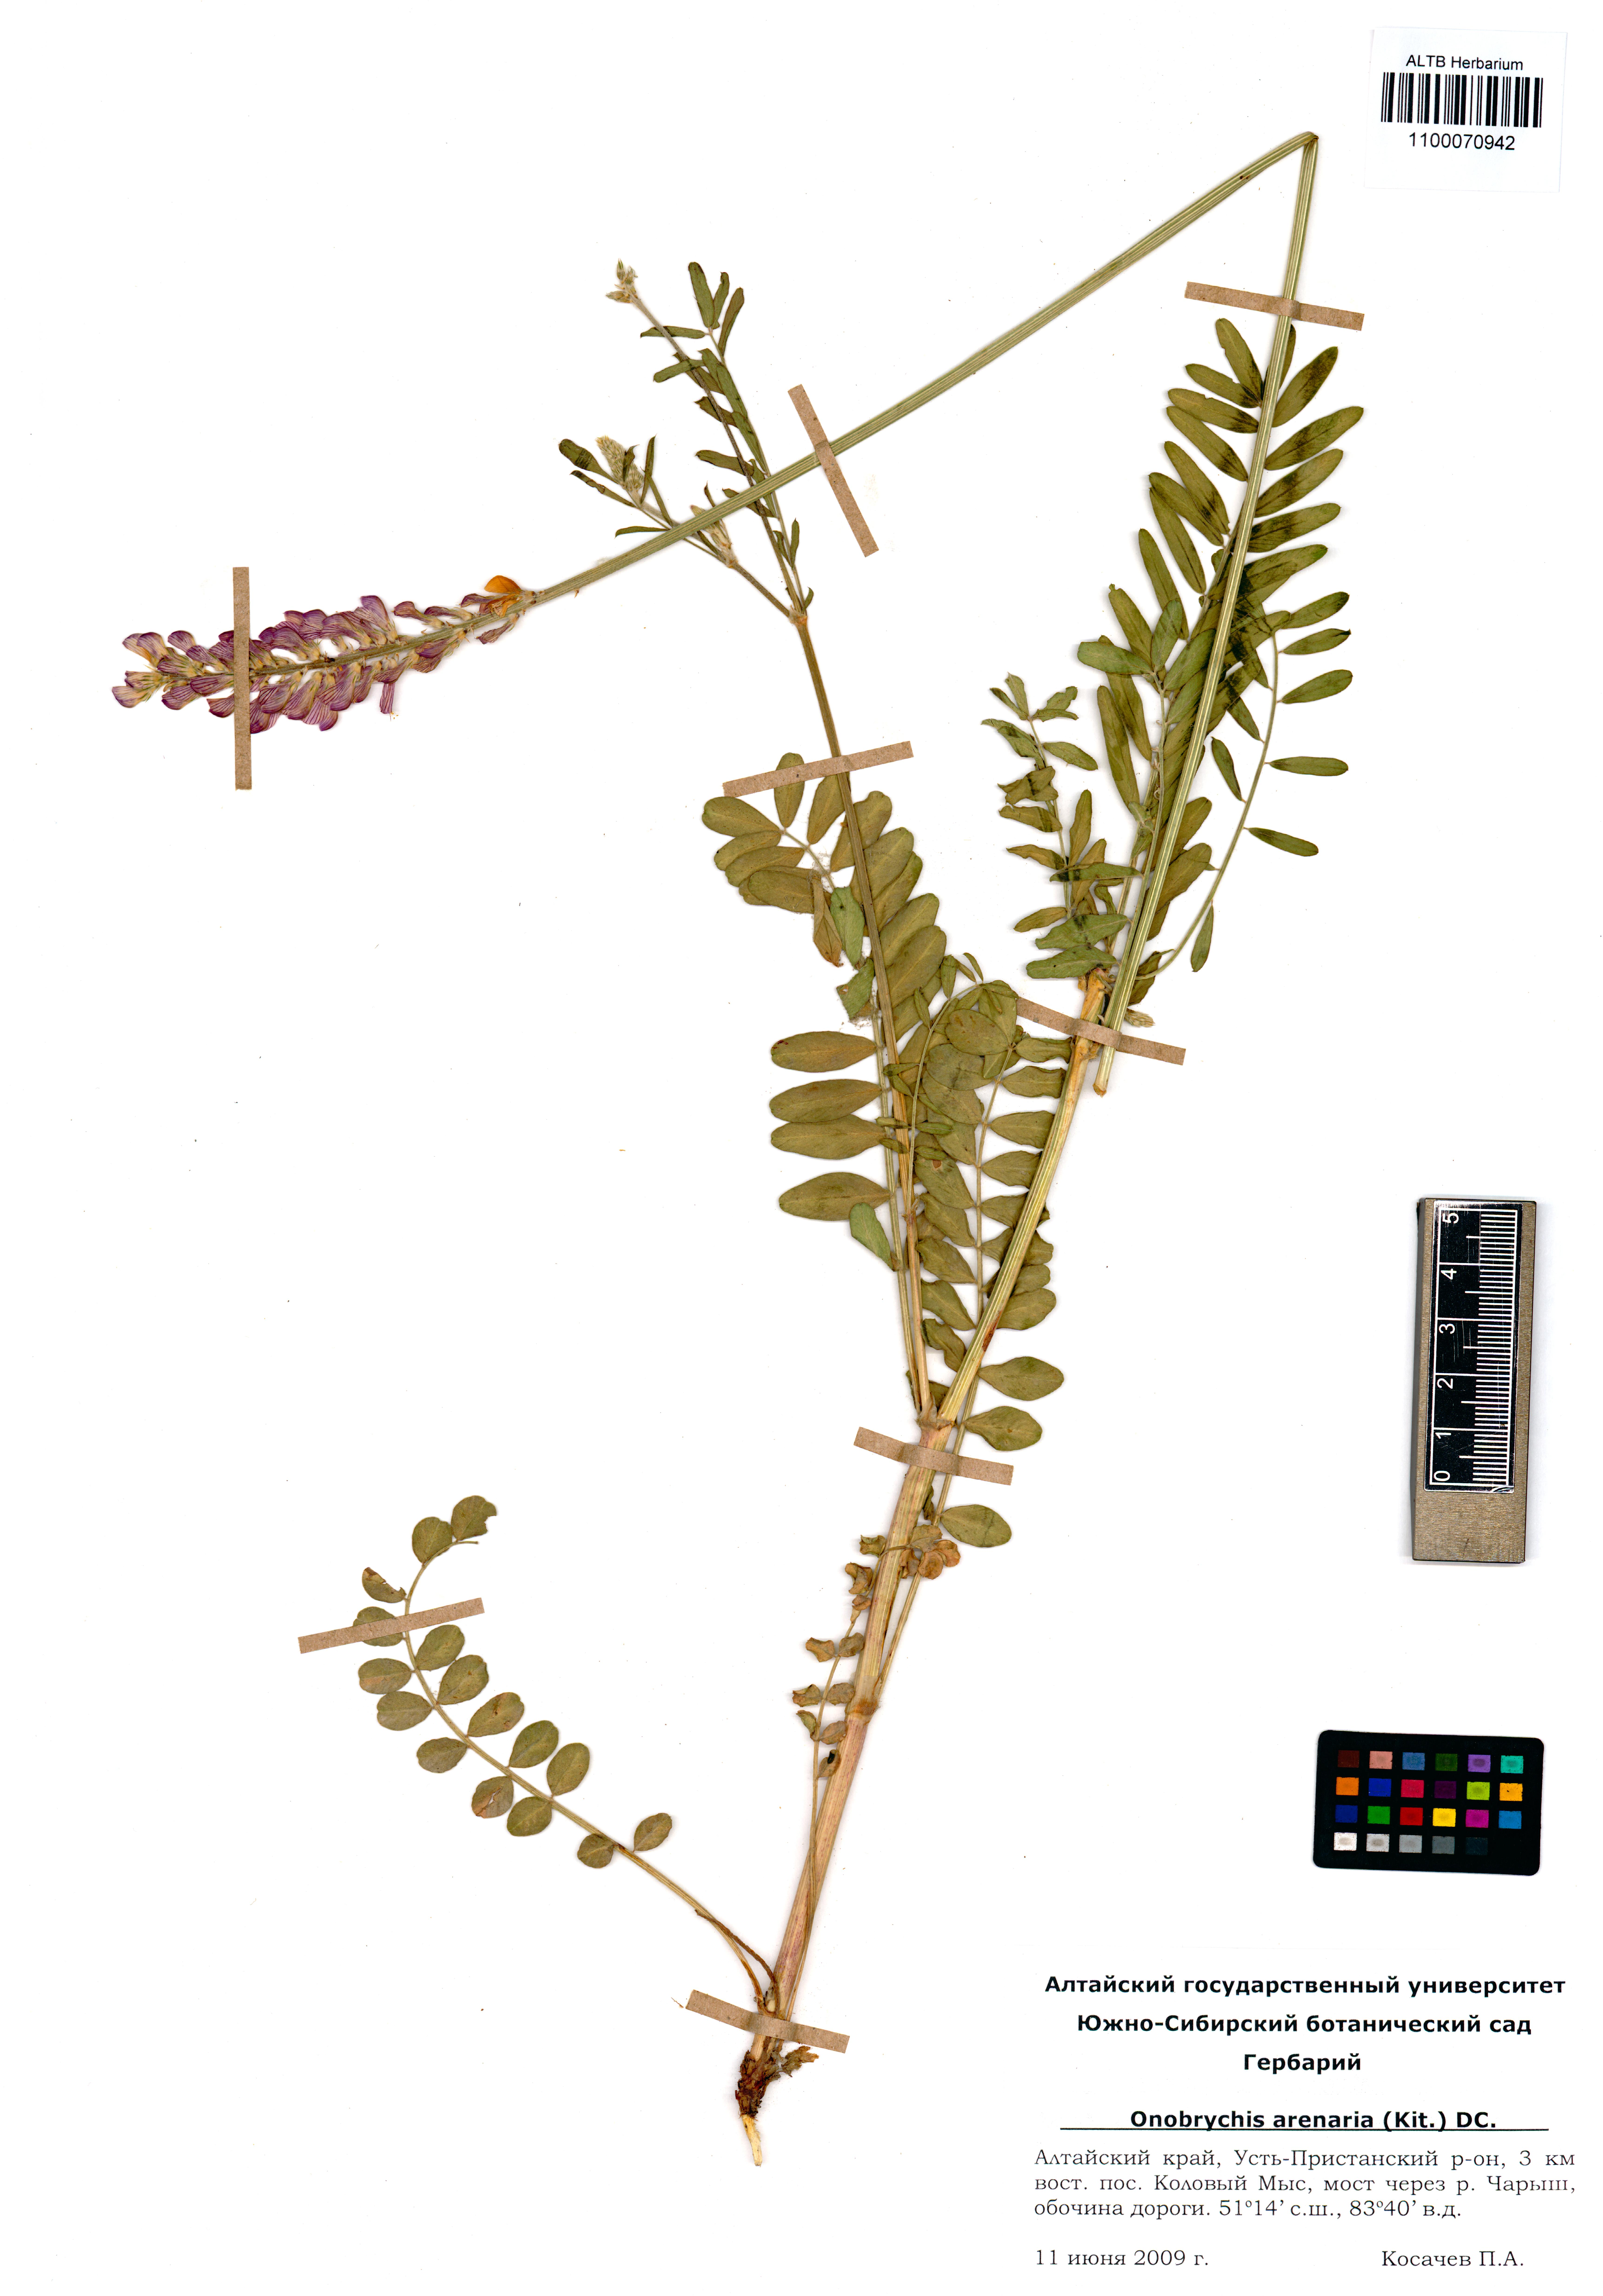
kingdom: Plantae
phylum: Tracheophyta
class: Magnoliopsida
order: Fabales
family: Fabaceae
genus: Onobrychis
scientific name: Onobrychis arenaria
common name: Sand esparcet
